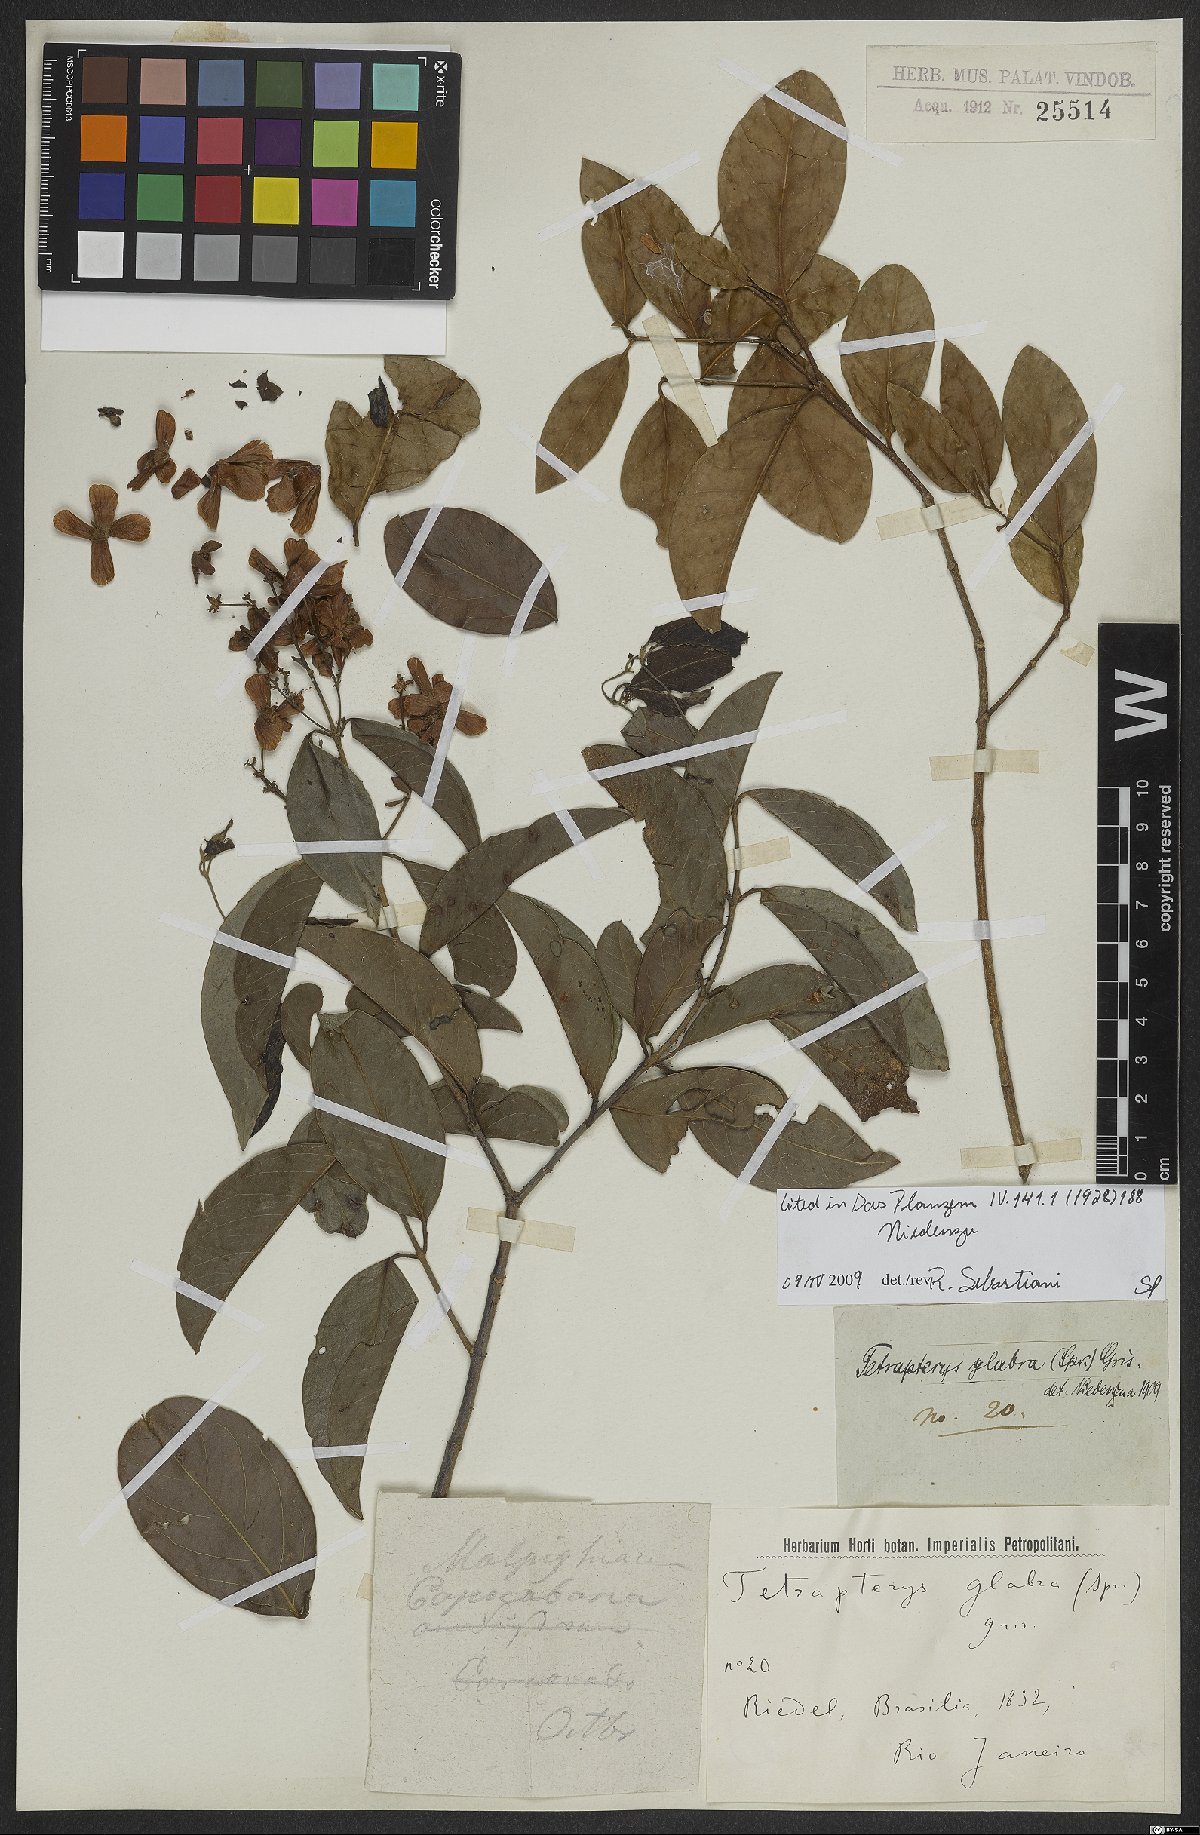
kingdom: Plantae
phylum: Tracheophyta
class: Magnoliopsida
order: Malpighiales
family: Malpighiaceae
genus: Niedenzuella
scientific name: Niedenzuella glabra
